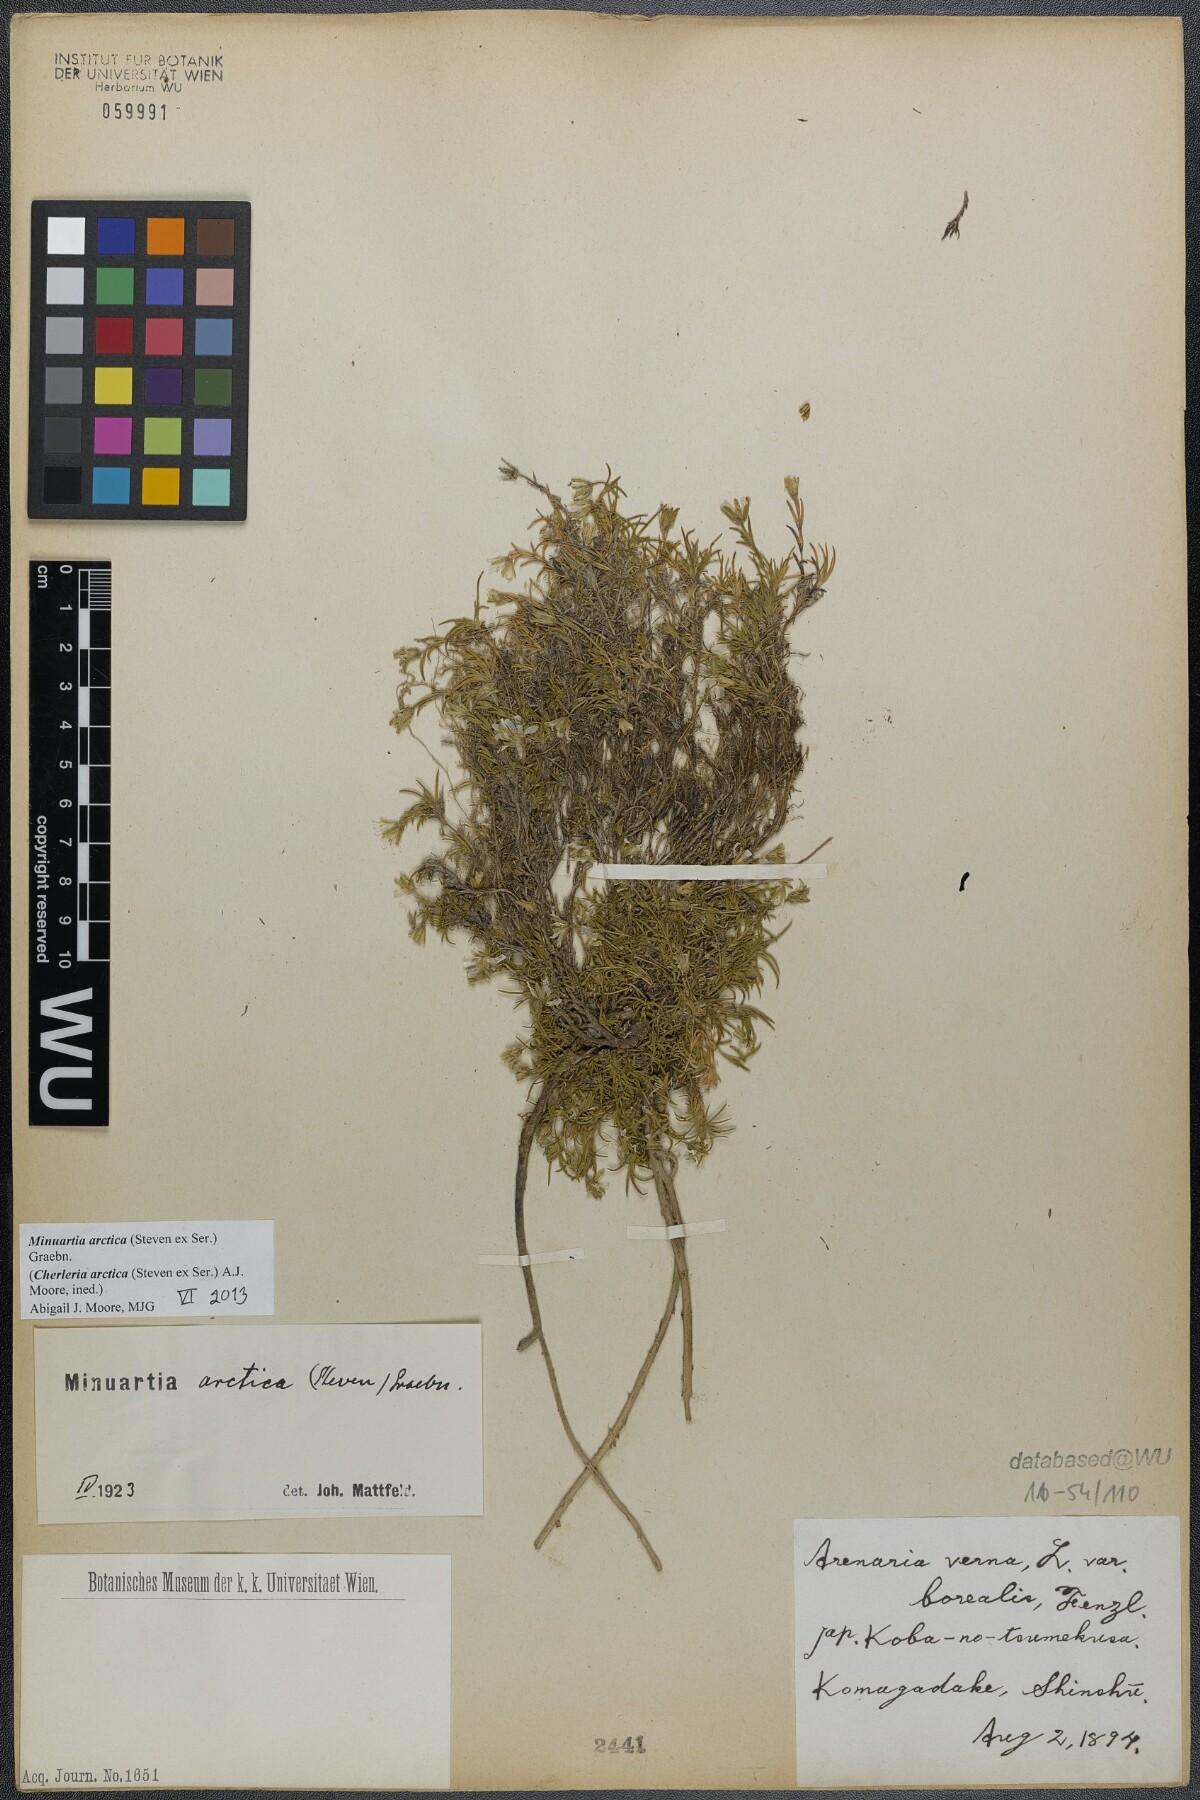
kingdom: Plantae
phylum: Tracheophyta
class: Magnoliopsida
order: Caryophyllales
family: Caryophyllaceae
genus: Cherleria
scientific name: Cherleria arctica
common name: Arctic sandwort
